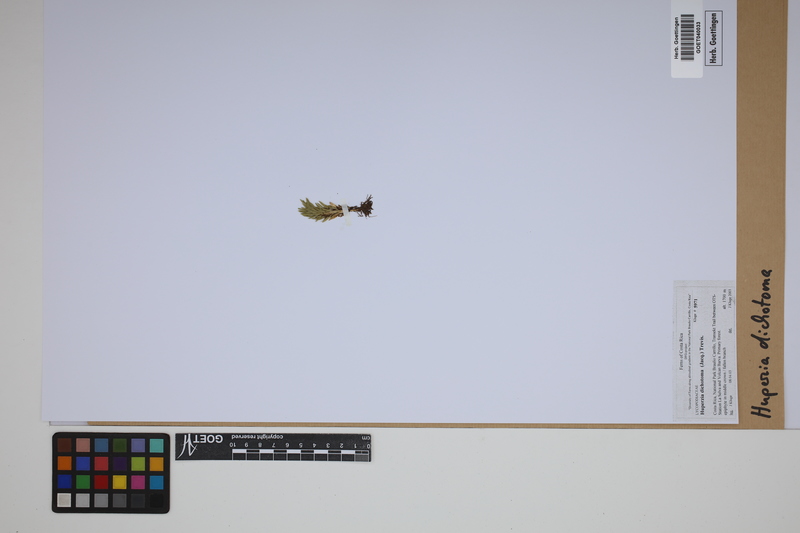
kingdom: Plantae
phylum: Tracheophyta
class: Lycopodiopsida
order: Lycopodiales
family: Lycopodiaceae
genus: Phlegmariurus
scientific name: Phlegmariurus dichotomus
